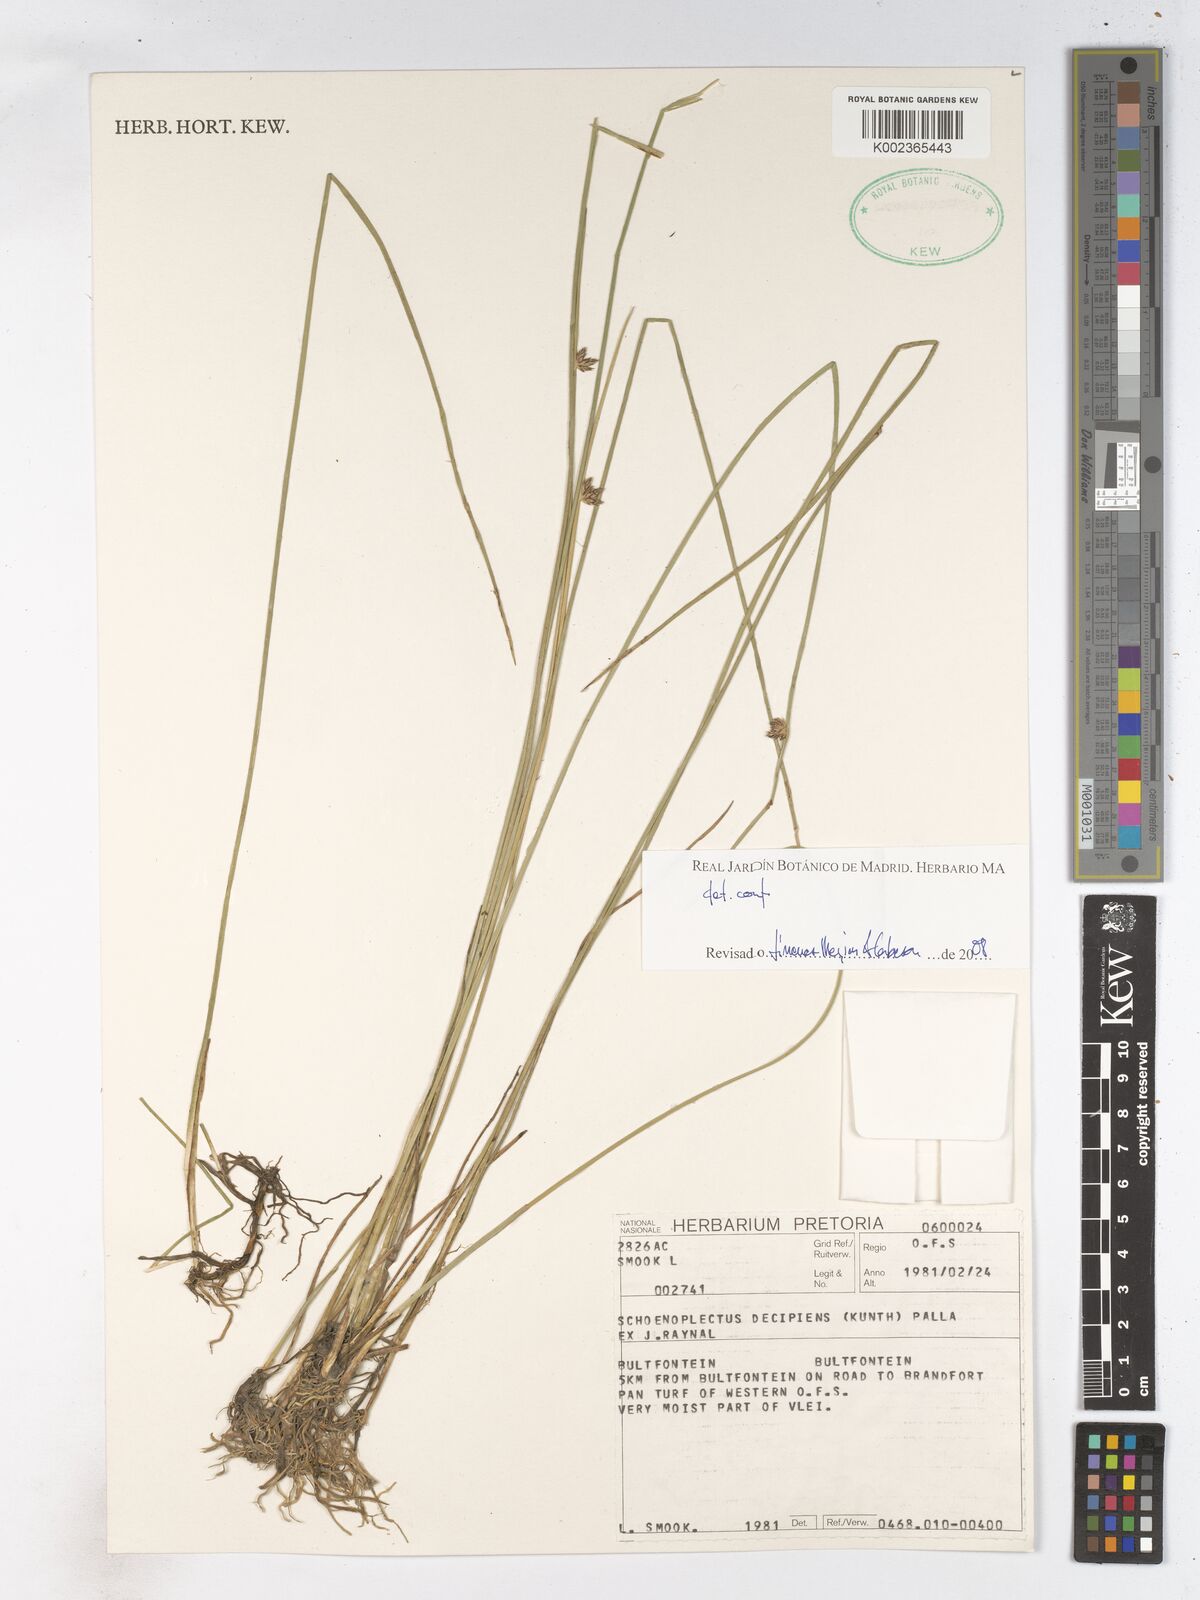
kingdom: Plantae
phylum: Tracheophyta
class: Liliopsida
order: Poales
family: Cyperaceae
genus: Schoenoplectiella
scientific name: Schoenoplectiella decipiens
